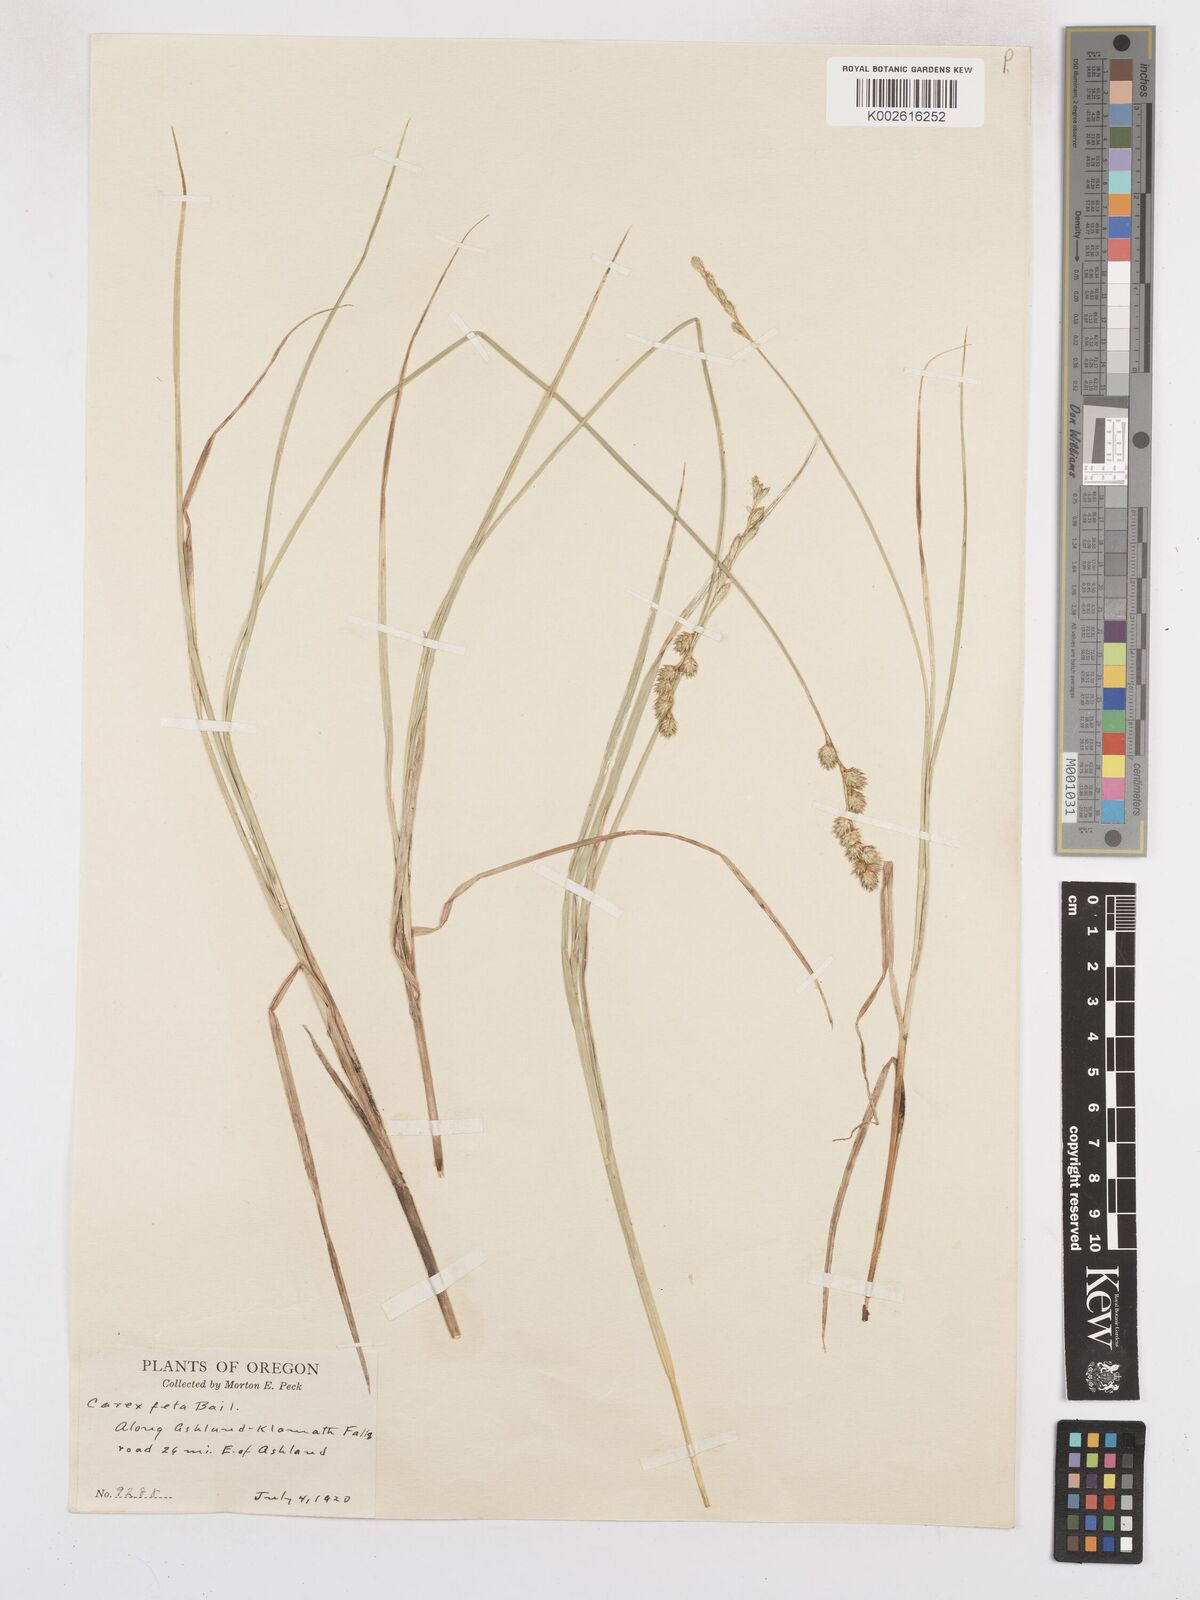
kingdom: Plantae
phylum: Tracheophyta
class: Liliopsida
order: Poales
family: Cyperaceae
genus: Carex
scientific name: Carex feta
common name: Green-sheathed sedge
